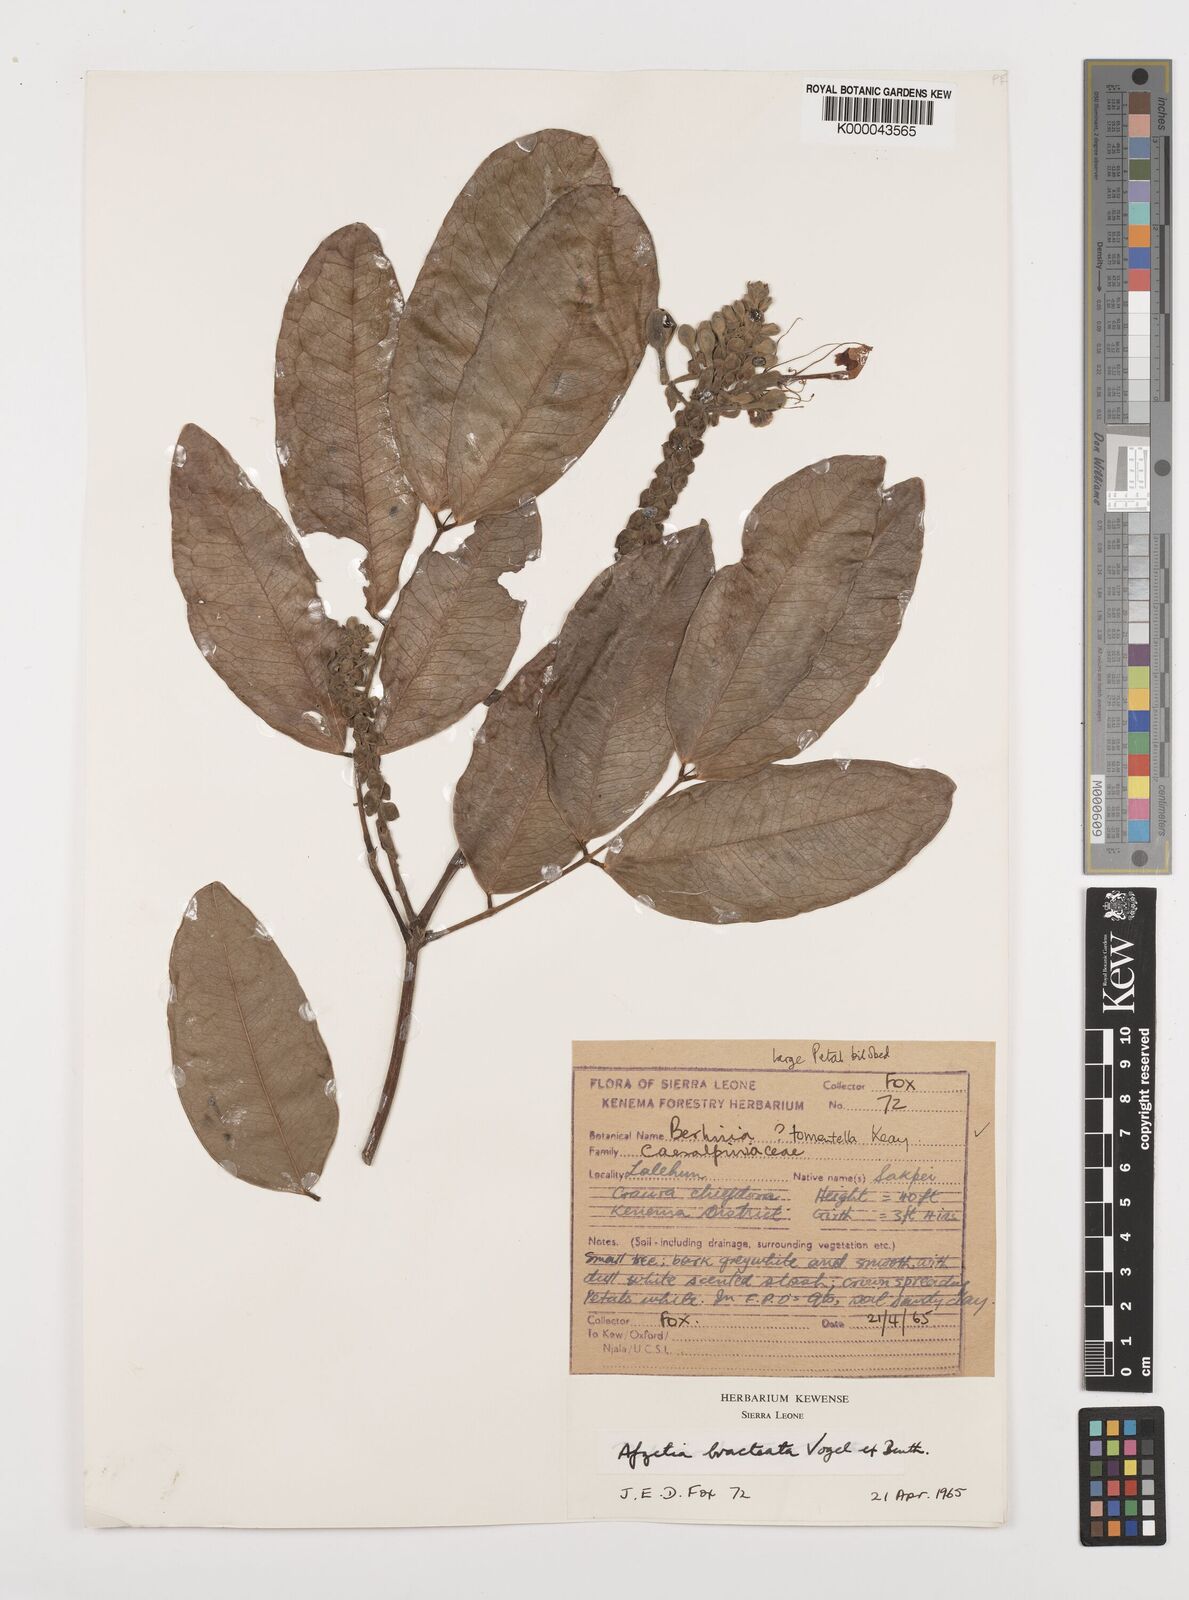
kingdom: Plantae
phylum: Tracheophyta
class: Magnoliopsida
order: Fabales
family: Fabaceae
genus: Afzelia
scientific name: Afzelia
